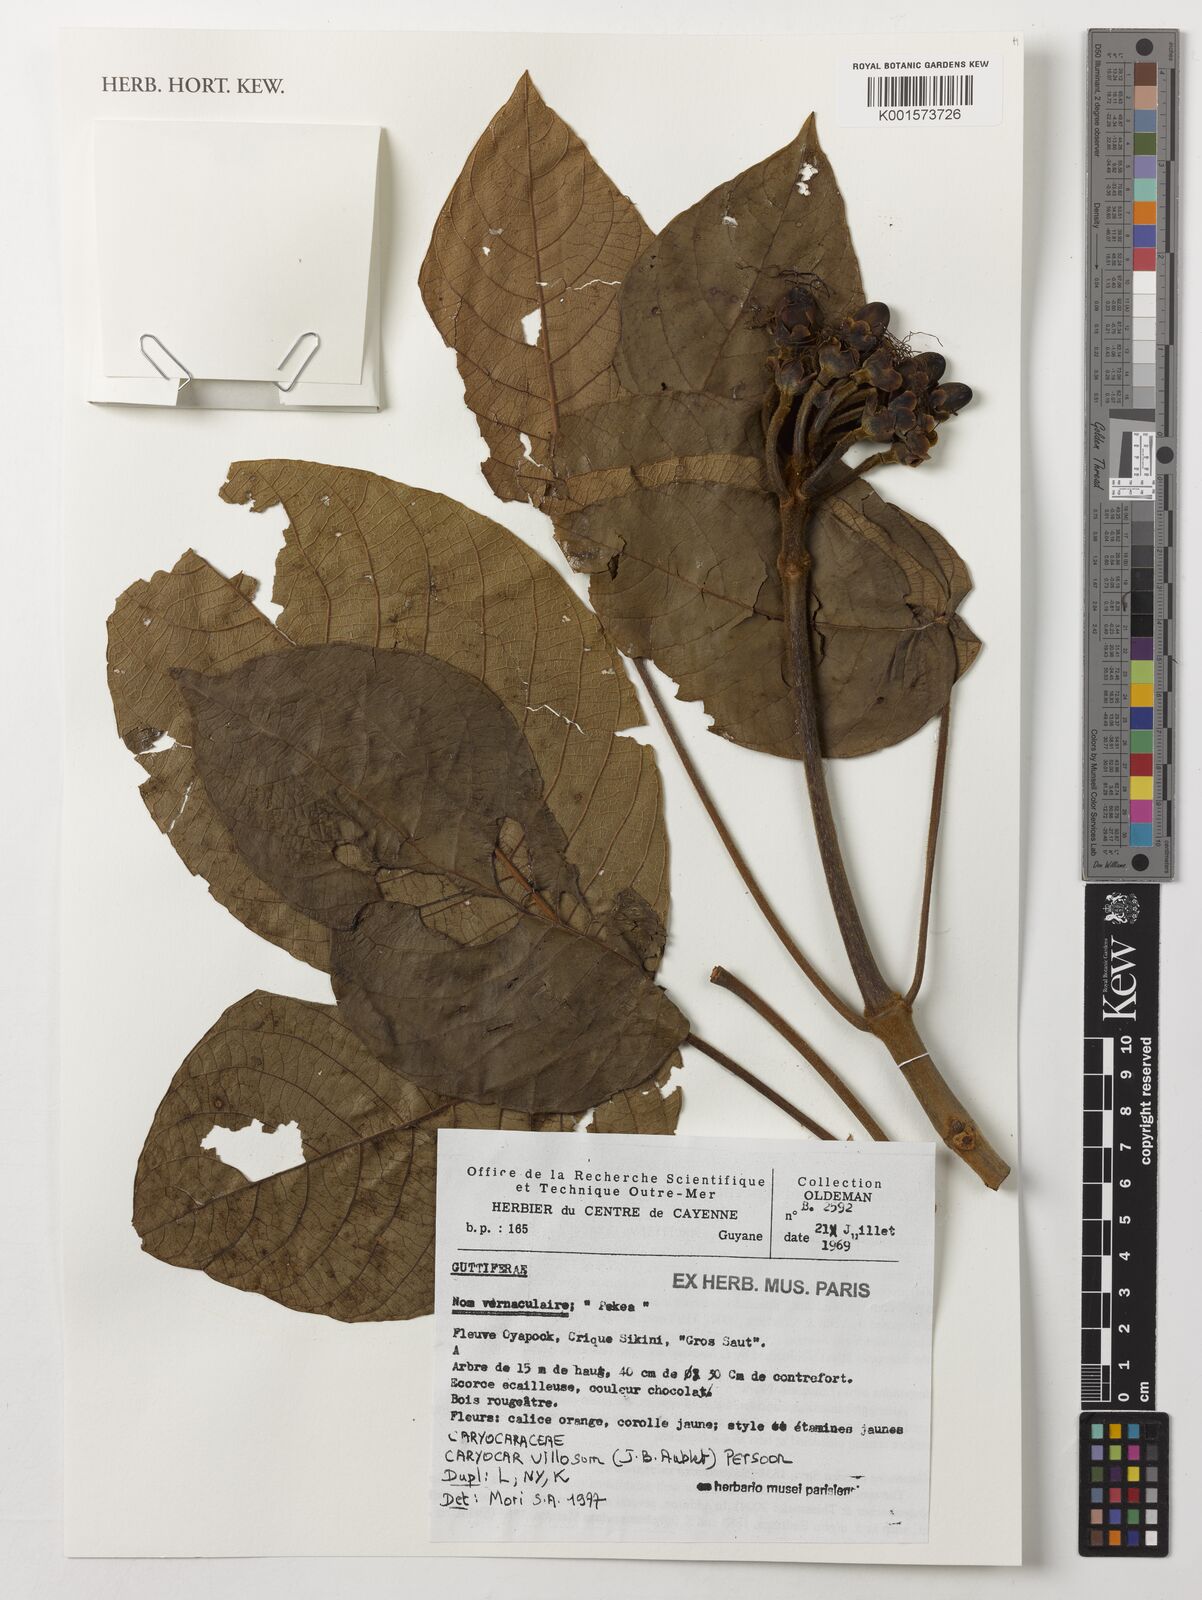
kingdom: Plantae
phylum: Tracheophyta
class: Magnoliopsida
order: Malpighiales
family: Caryocaraceae
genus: Caryocar
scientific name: Caryocar villosum
